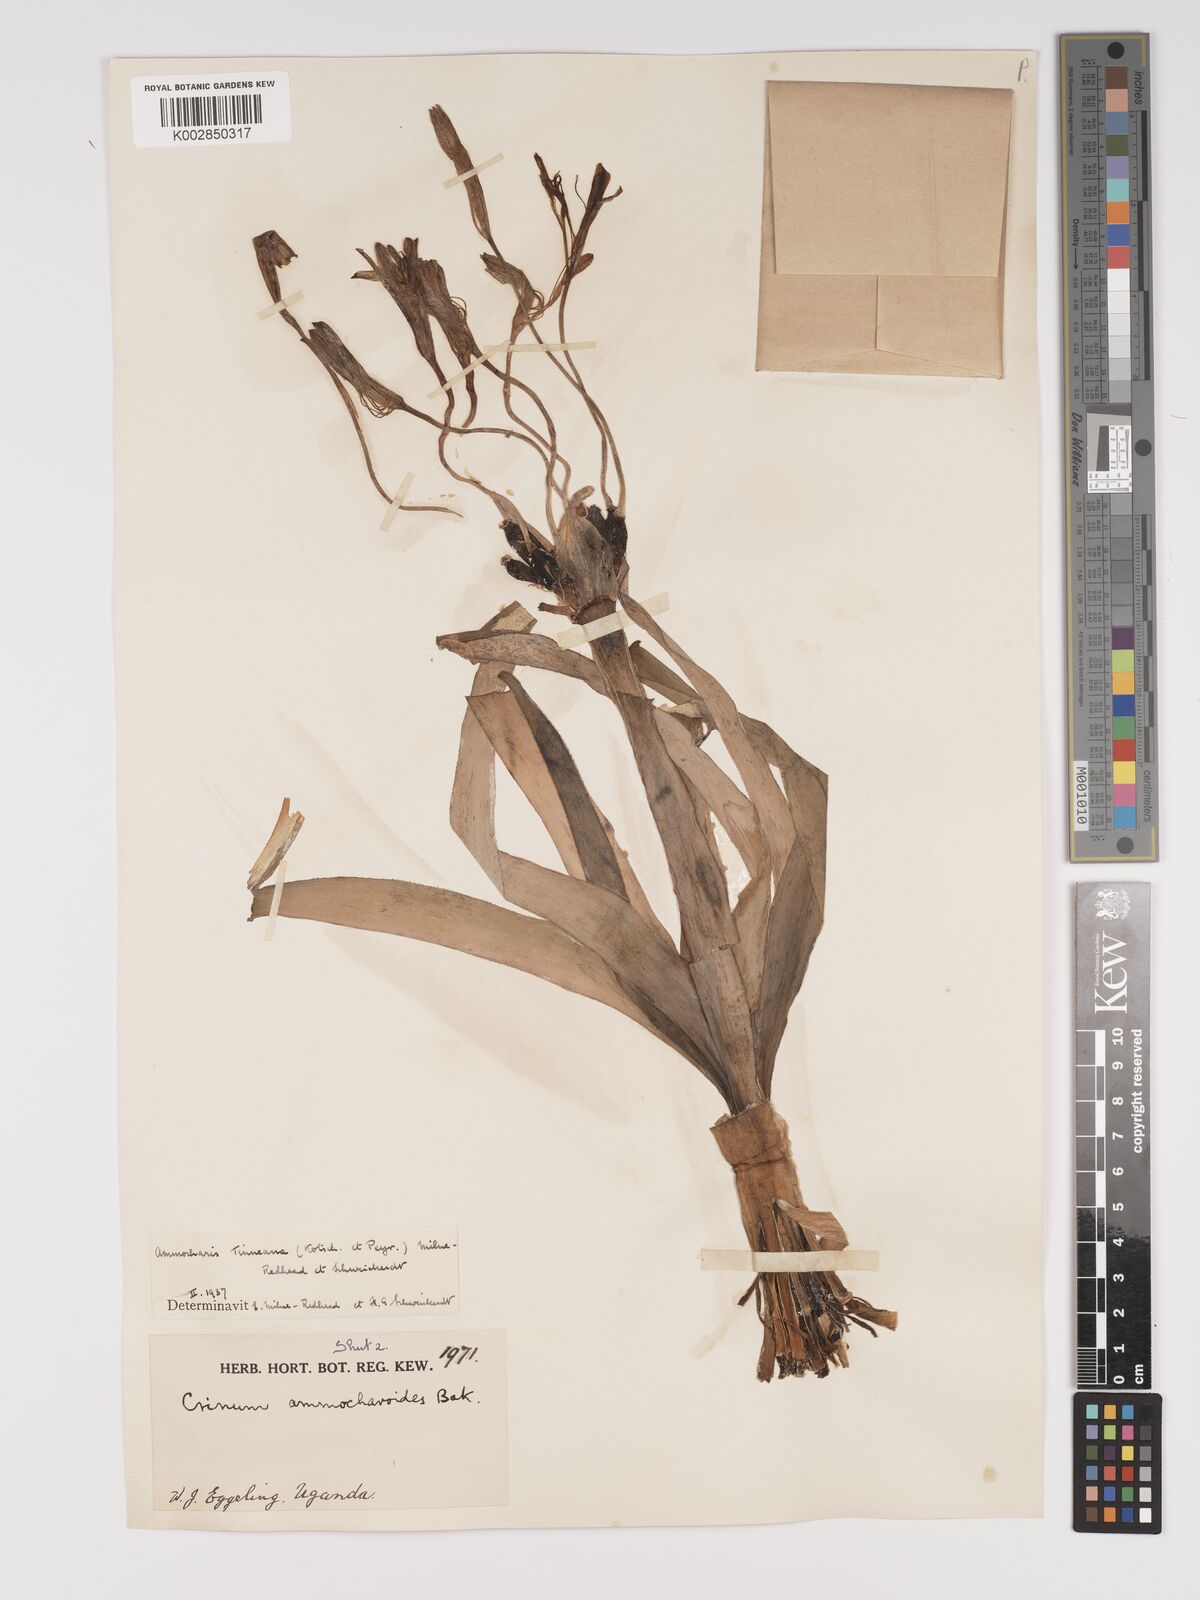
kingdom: Plantae
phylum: Tracheophyta
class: Liliopsida
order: Asparagales
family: Amaryllidaceae
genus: Ammocharis
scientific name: Ammocharis tinneana
